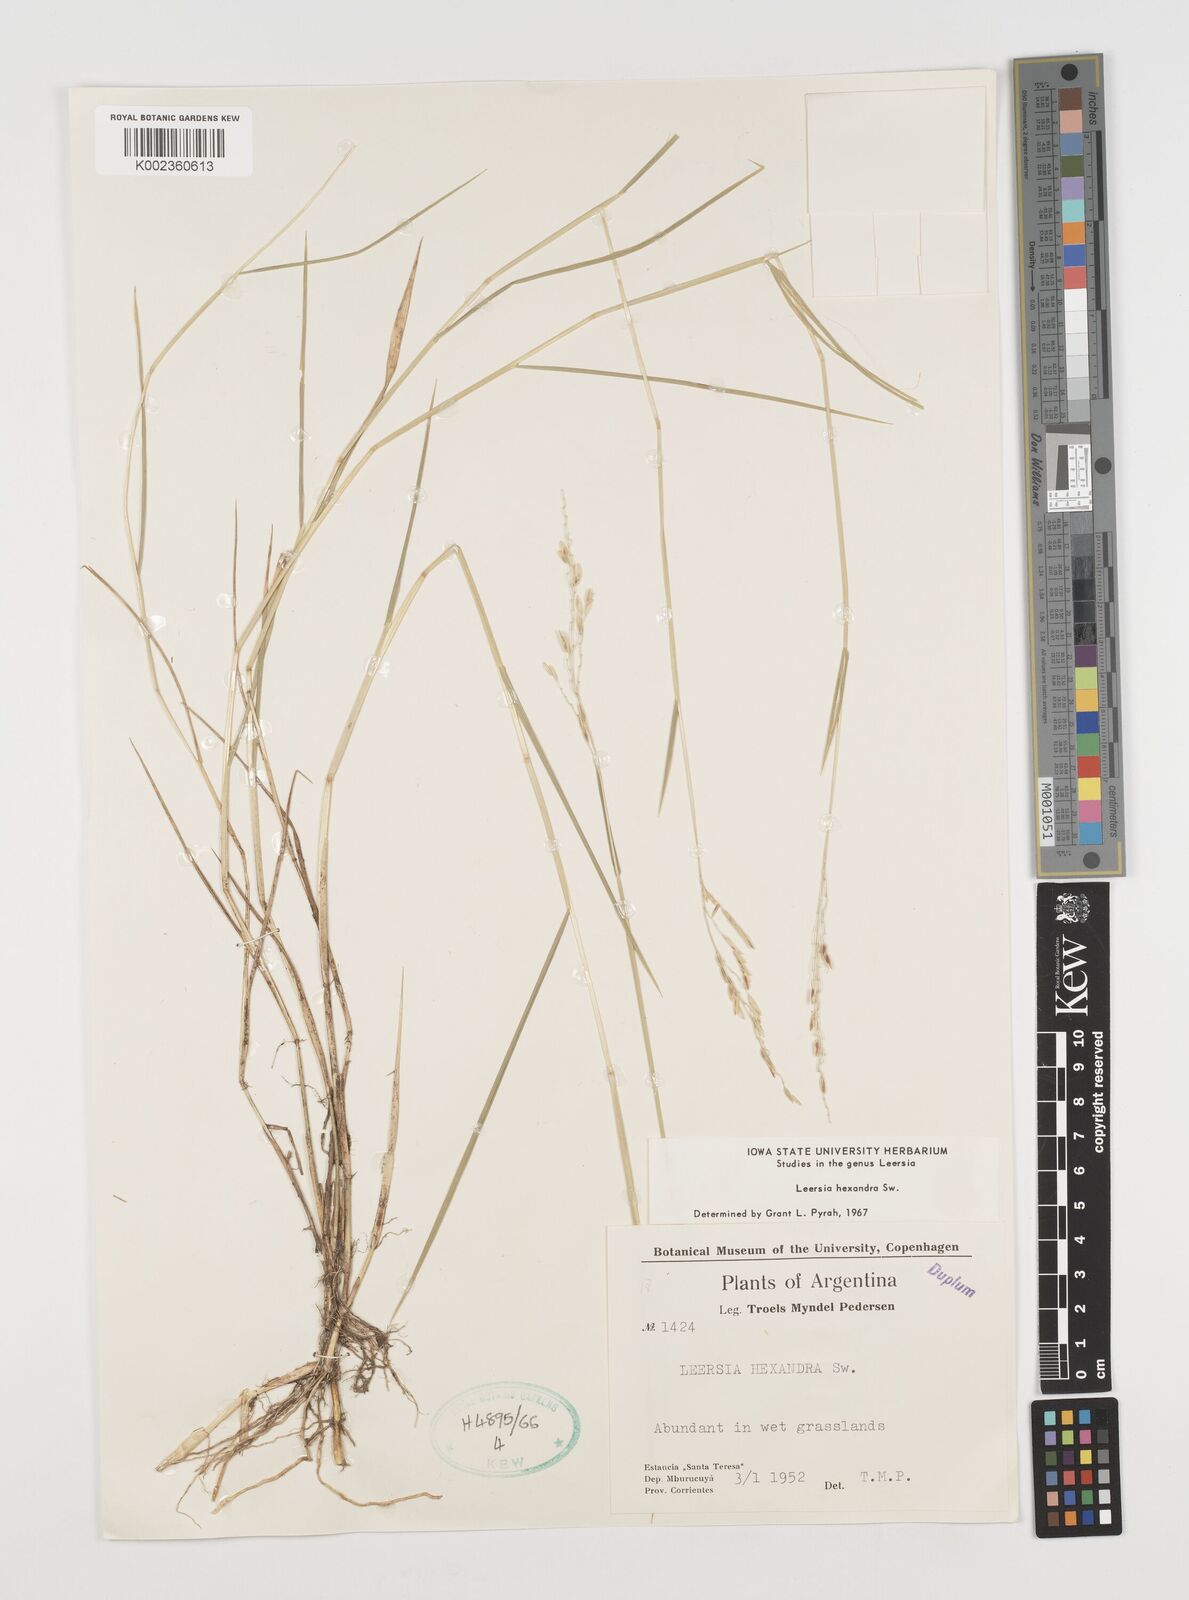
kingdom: Plantae
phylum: Tracheophyta
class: Liliopsida
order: Poales
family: Poaceae
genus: Leersia
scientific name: Leersia hexandra
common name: Southern cut grass
